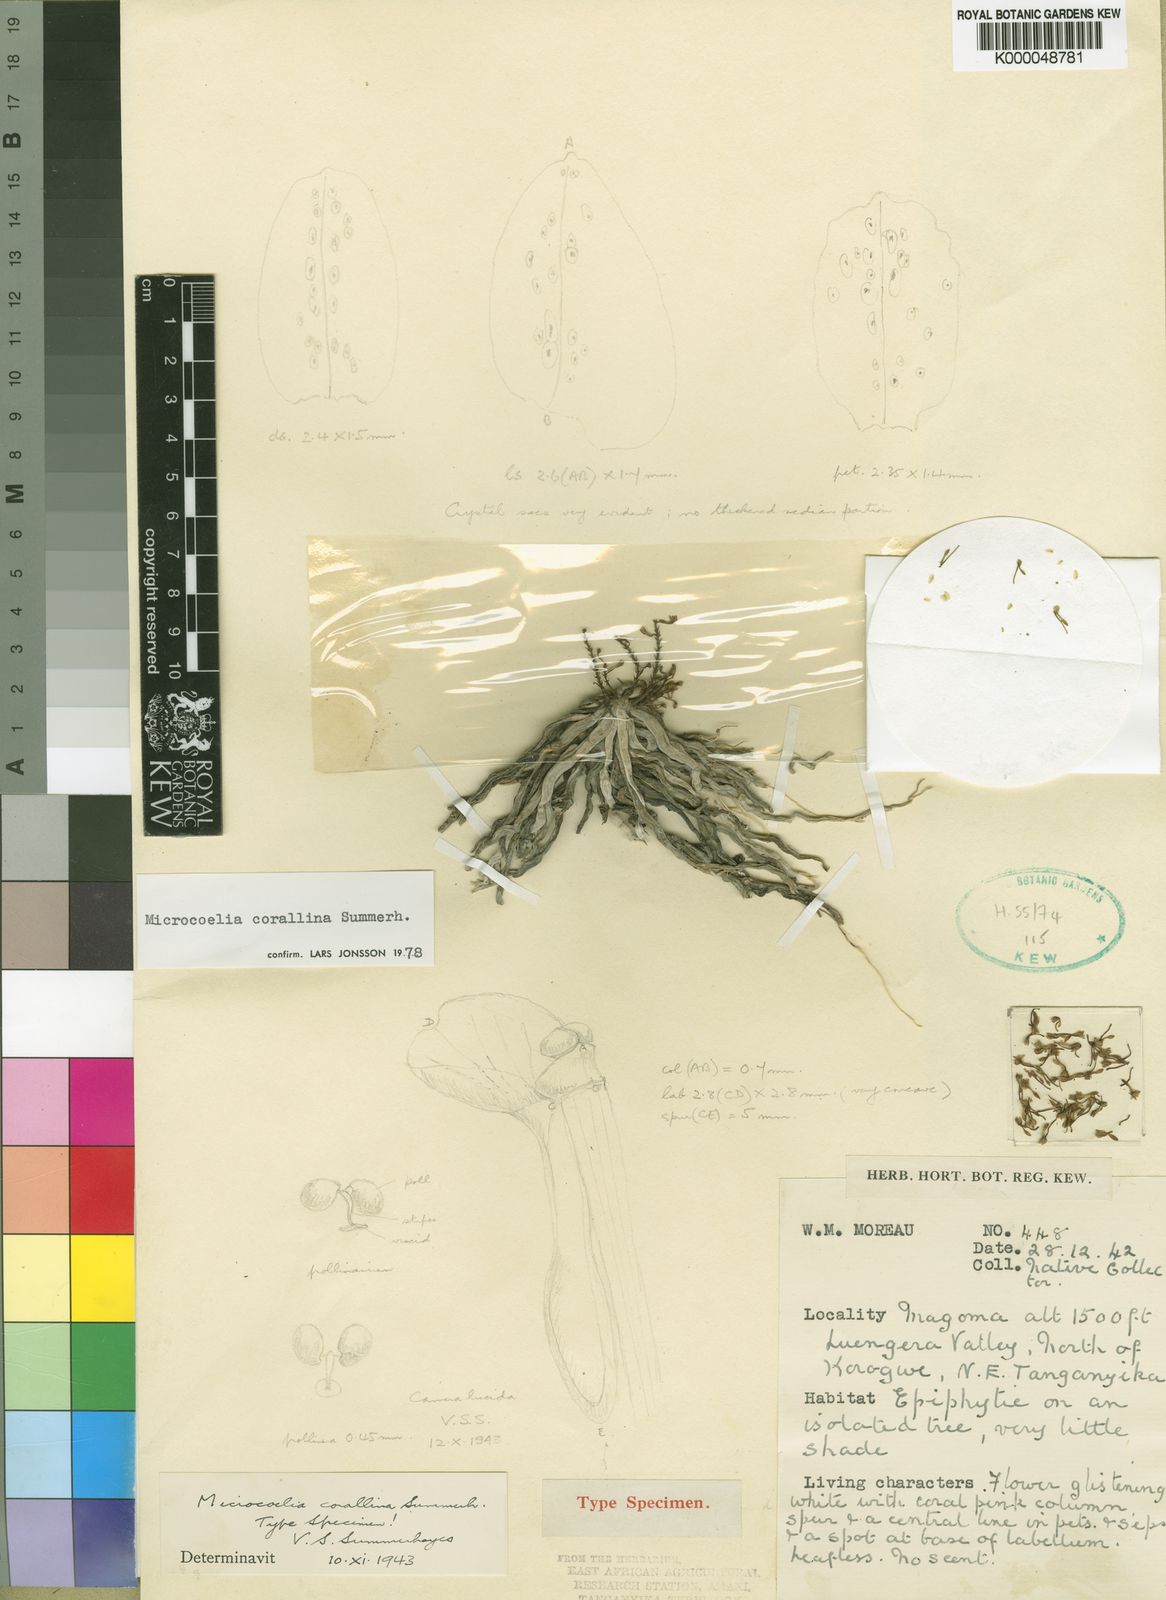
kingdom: Plantae
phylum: Tracheophyta
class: Liliopsida
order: Asparagales
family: Orchidaceae
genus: Microcoelia
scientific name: Microcoelia corallina
